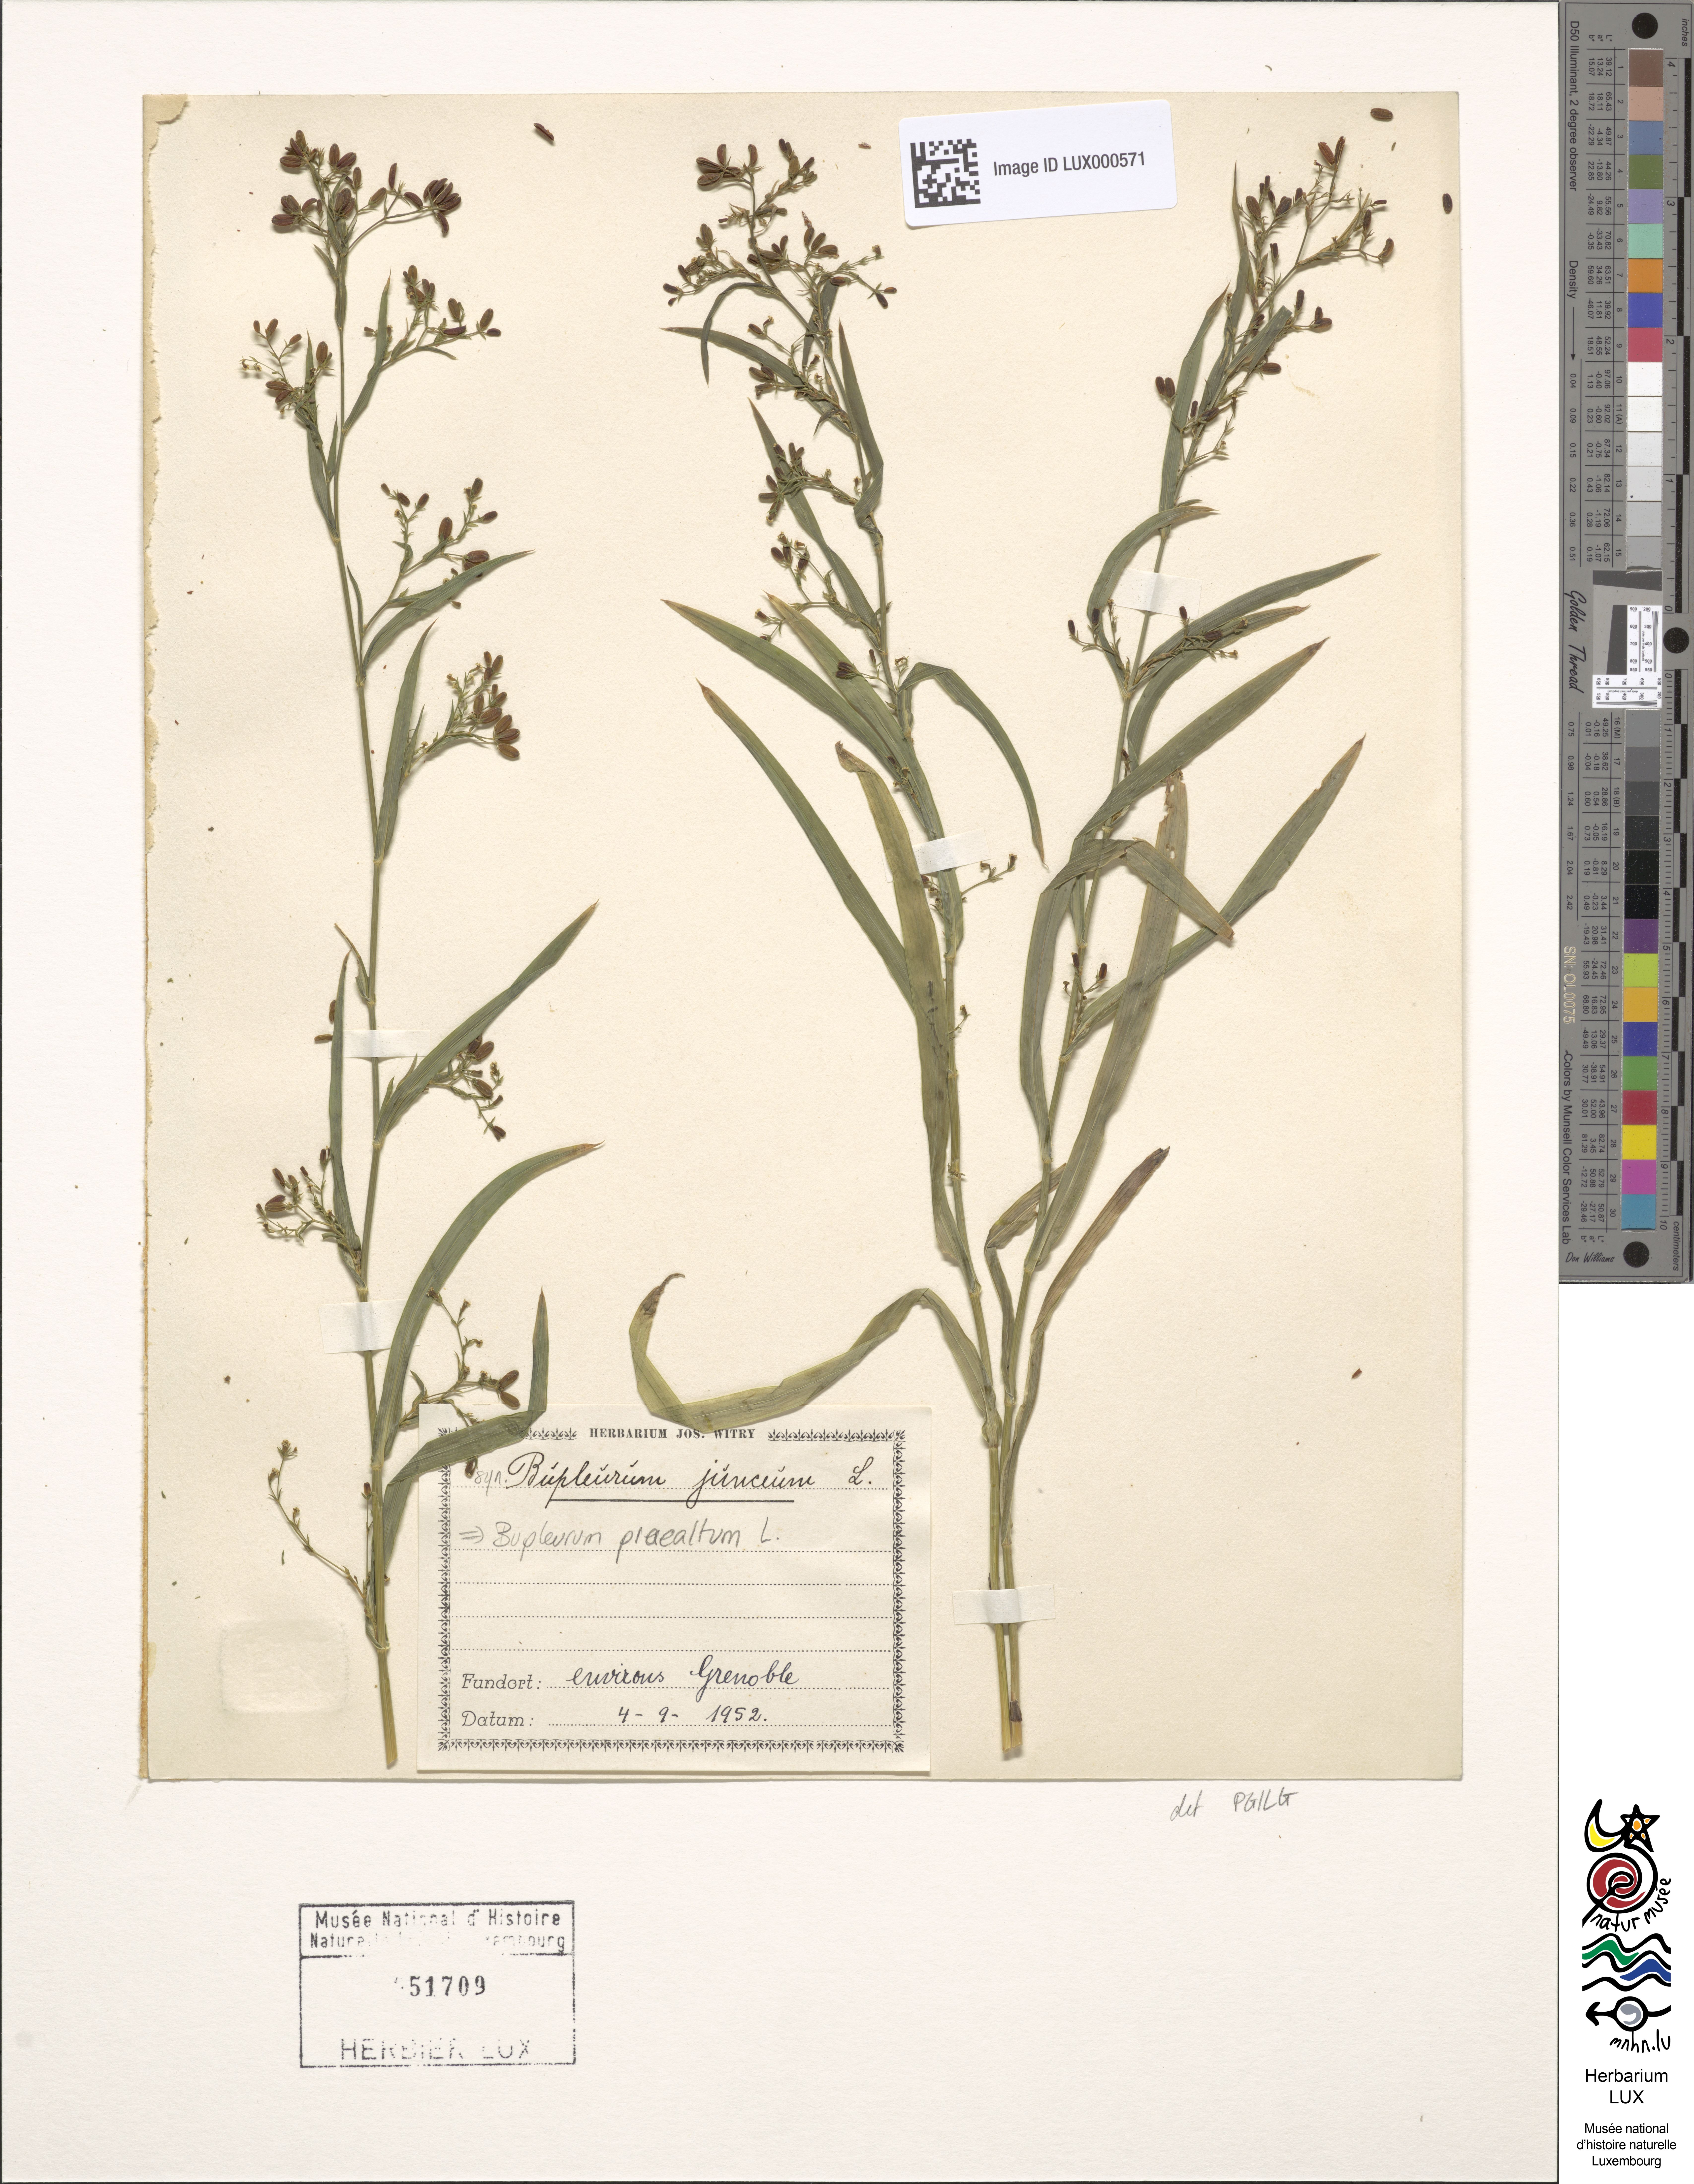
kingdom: Plantae
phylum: Tracheophyta
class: Magnoliopsida
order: Apiales
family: Apiaceae
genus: Bupleurum
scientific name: Bupleurum praealtum
